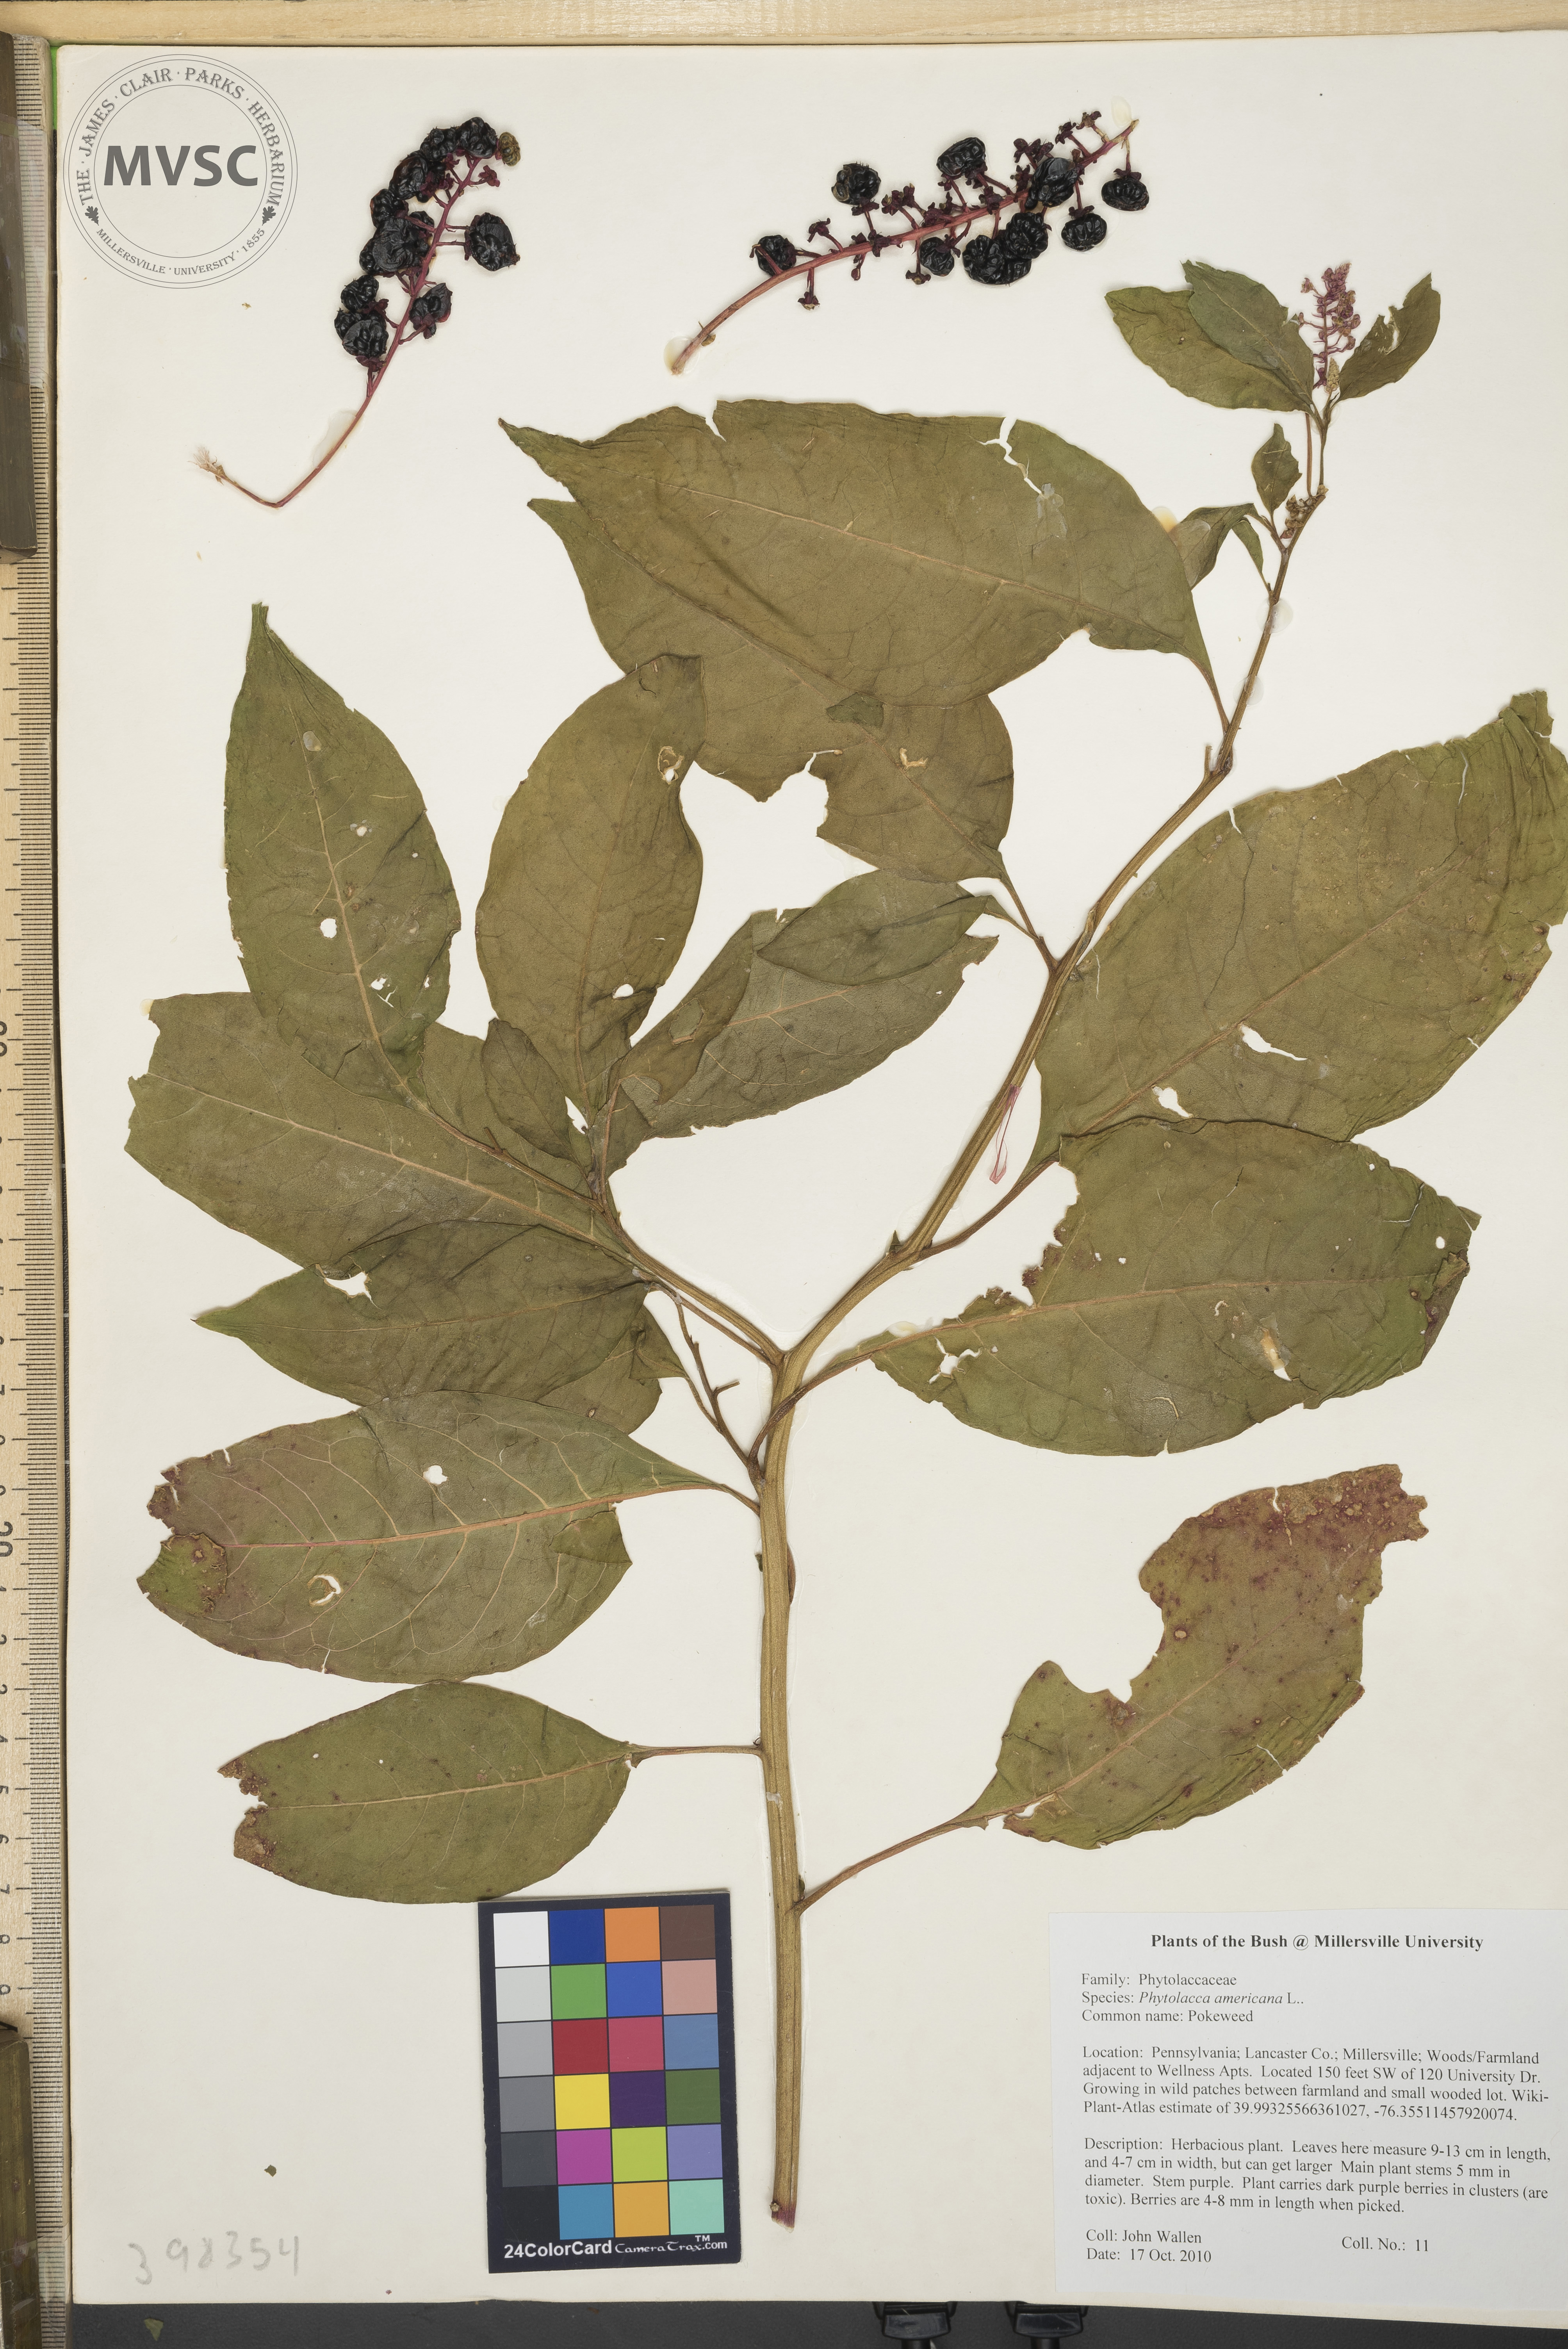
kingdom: Plantae
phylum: Tracheophyta
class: Magnoliopsida
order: Caryophyllales
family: Phytolaccaceae
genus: Phytolacca
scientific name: Phytolacca americana
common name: Pokeweed
